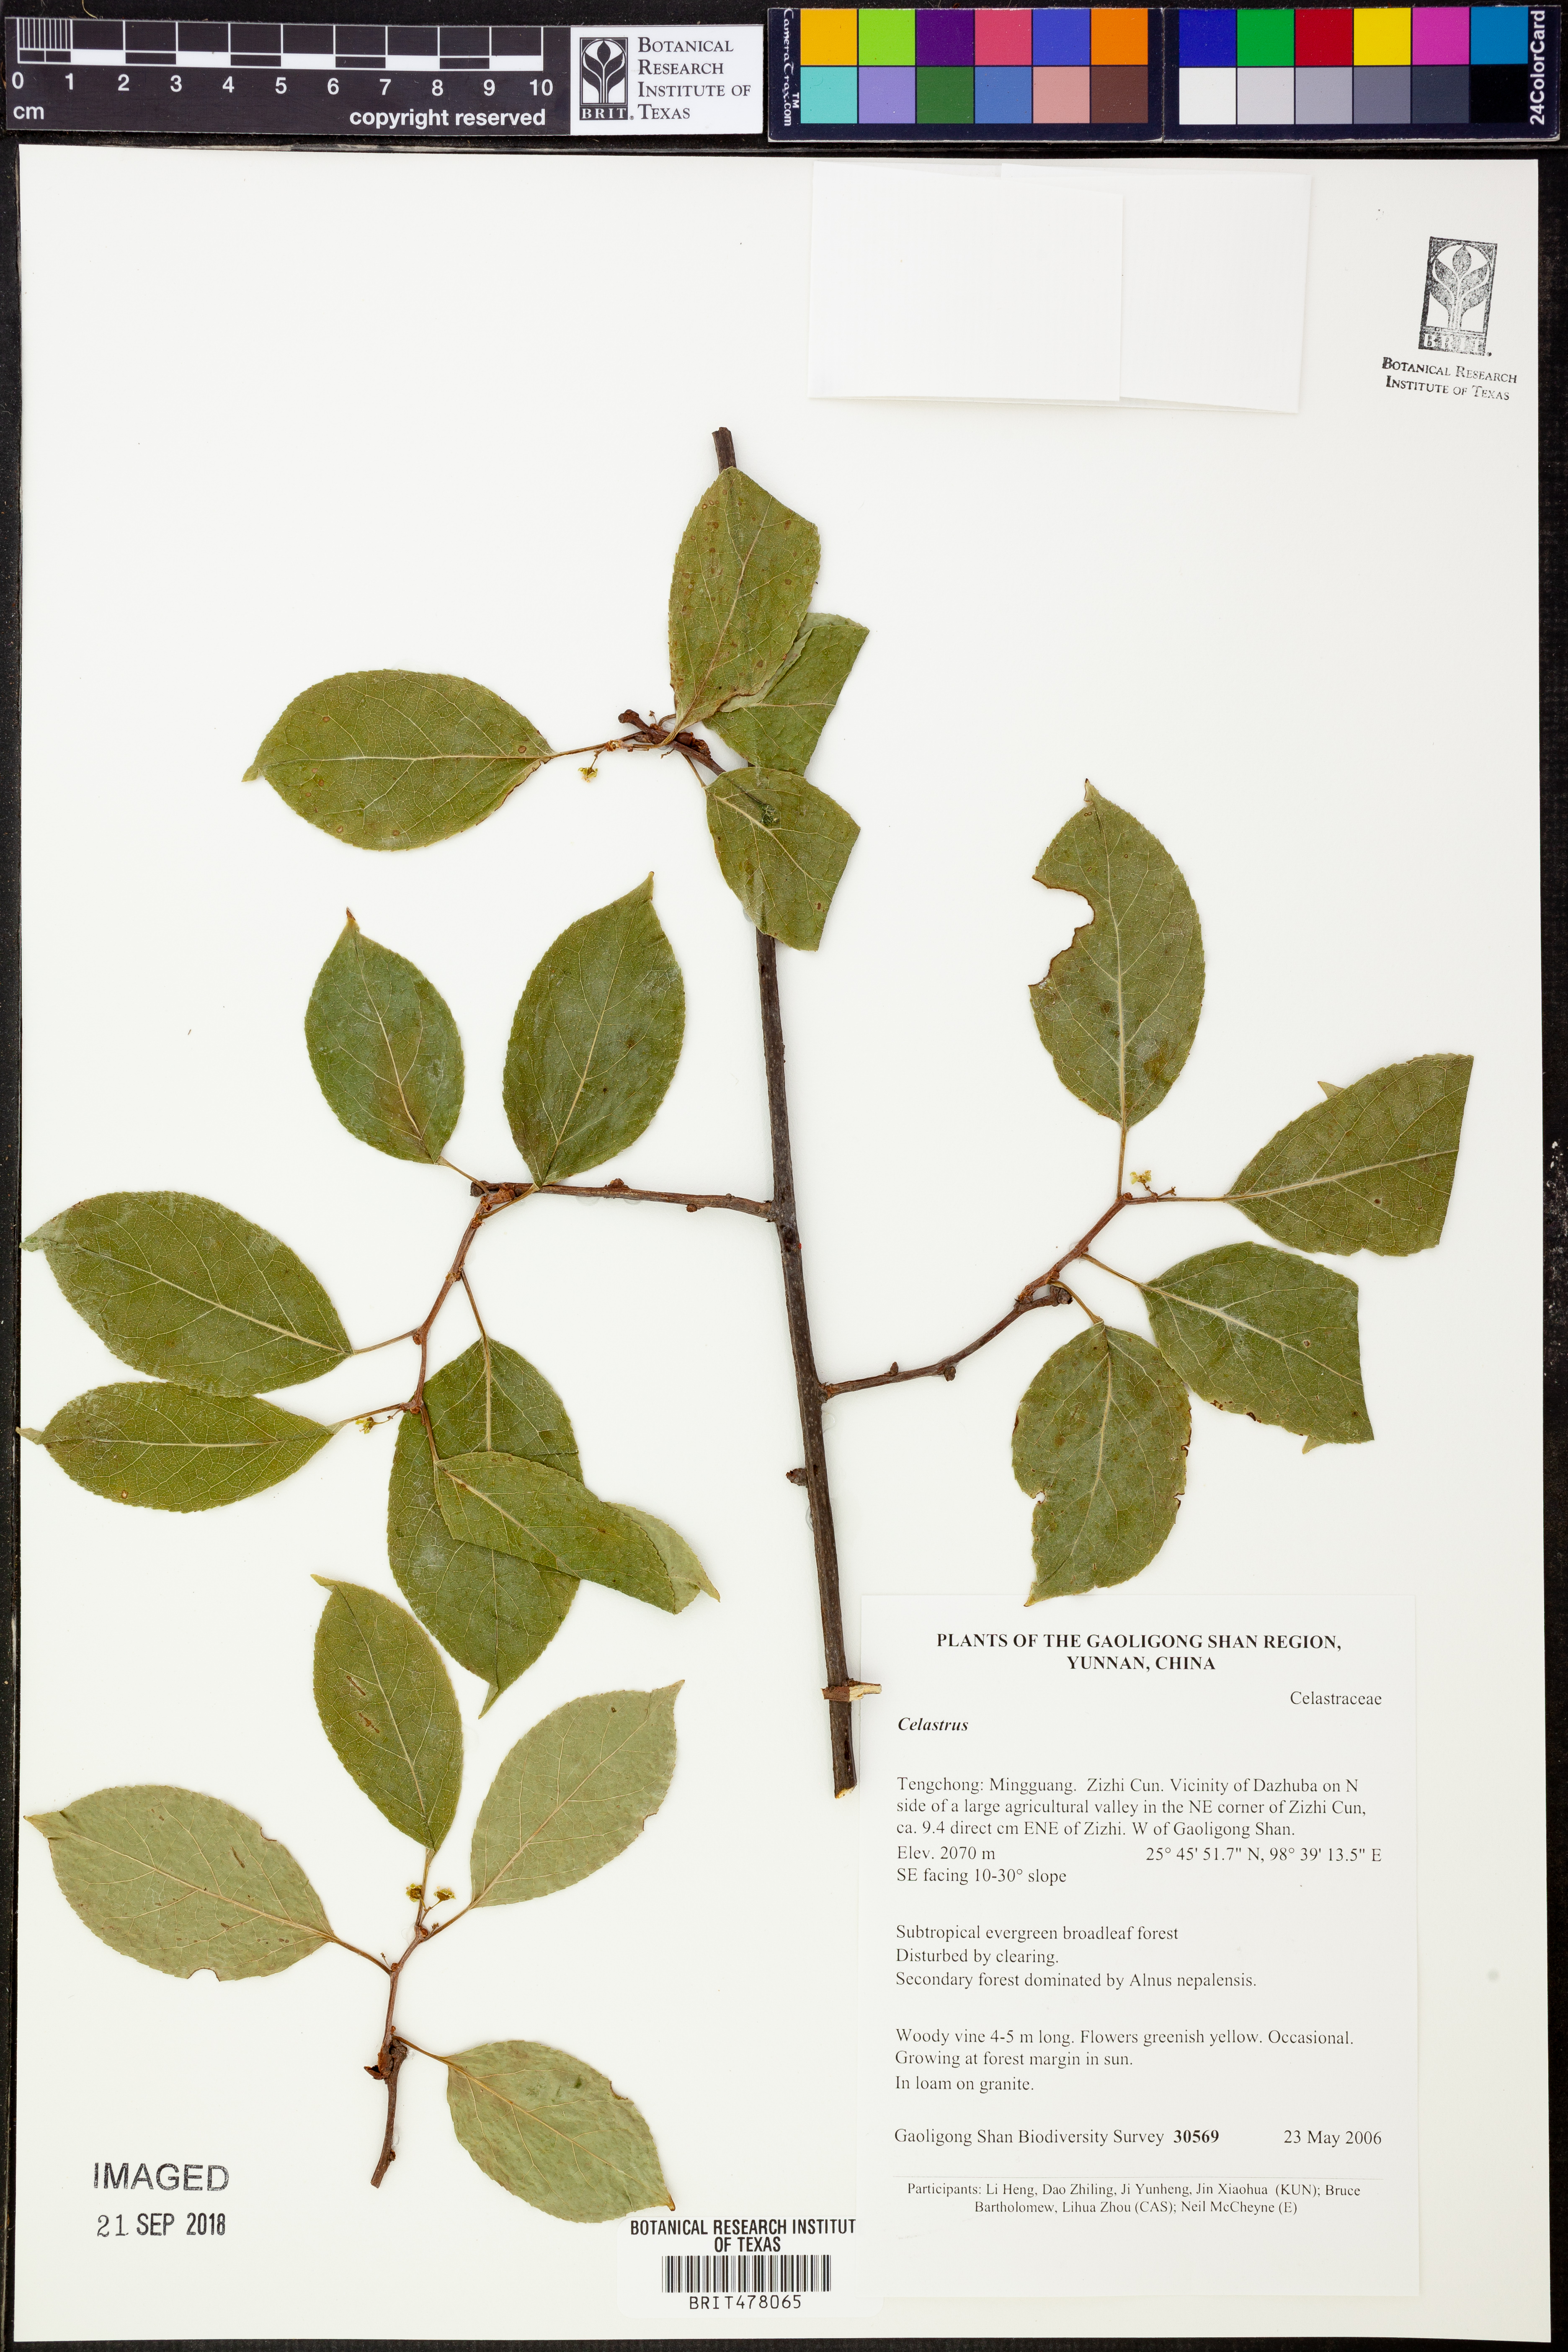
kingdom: Plantae
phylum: Tracheophyta
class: Magnoliopsida
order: Celastrales
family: Celastraceae
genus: Celastrus
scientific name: Celastrus
